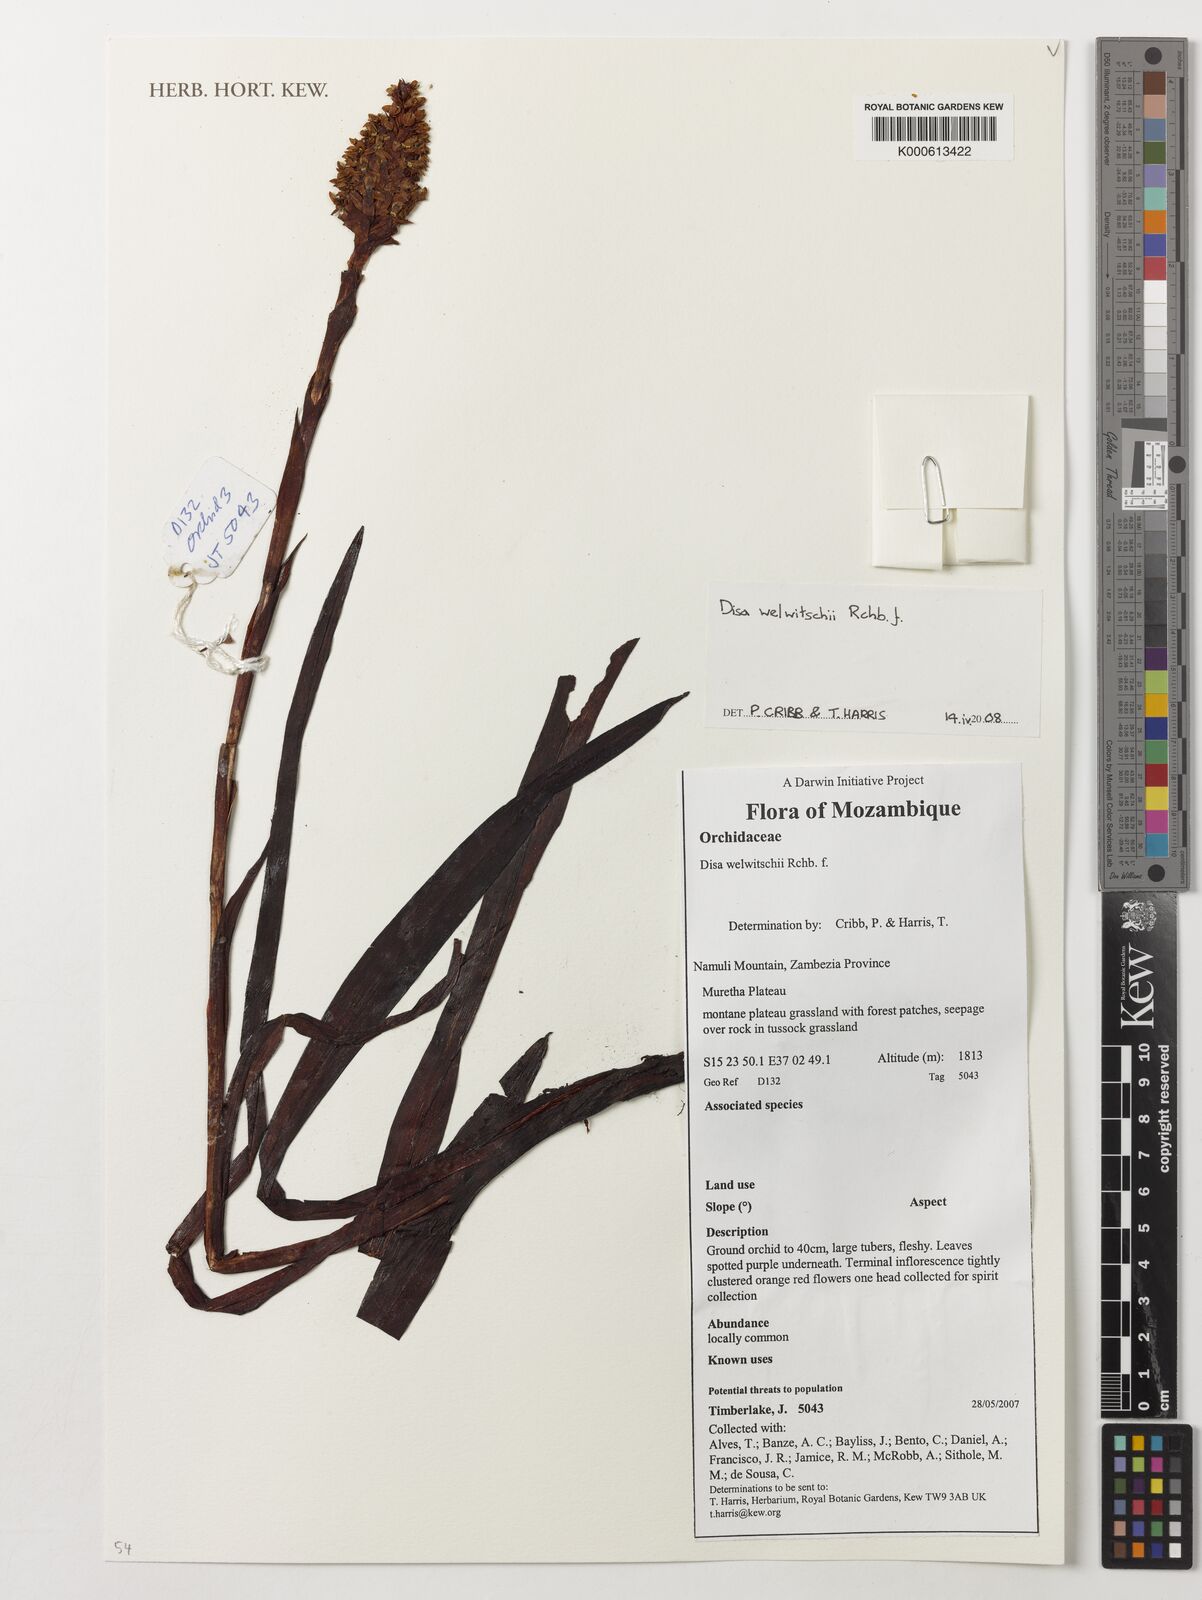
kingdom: Plantae
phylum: Tracheophyta
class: Liliopsida
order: Asparagales
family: Orchidaceae
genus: Disa
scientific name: Disa welwitschii
